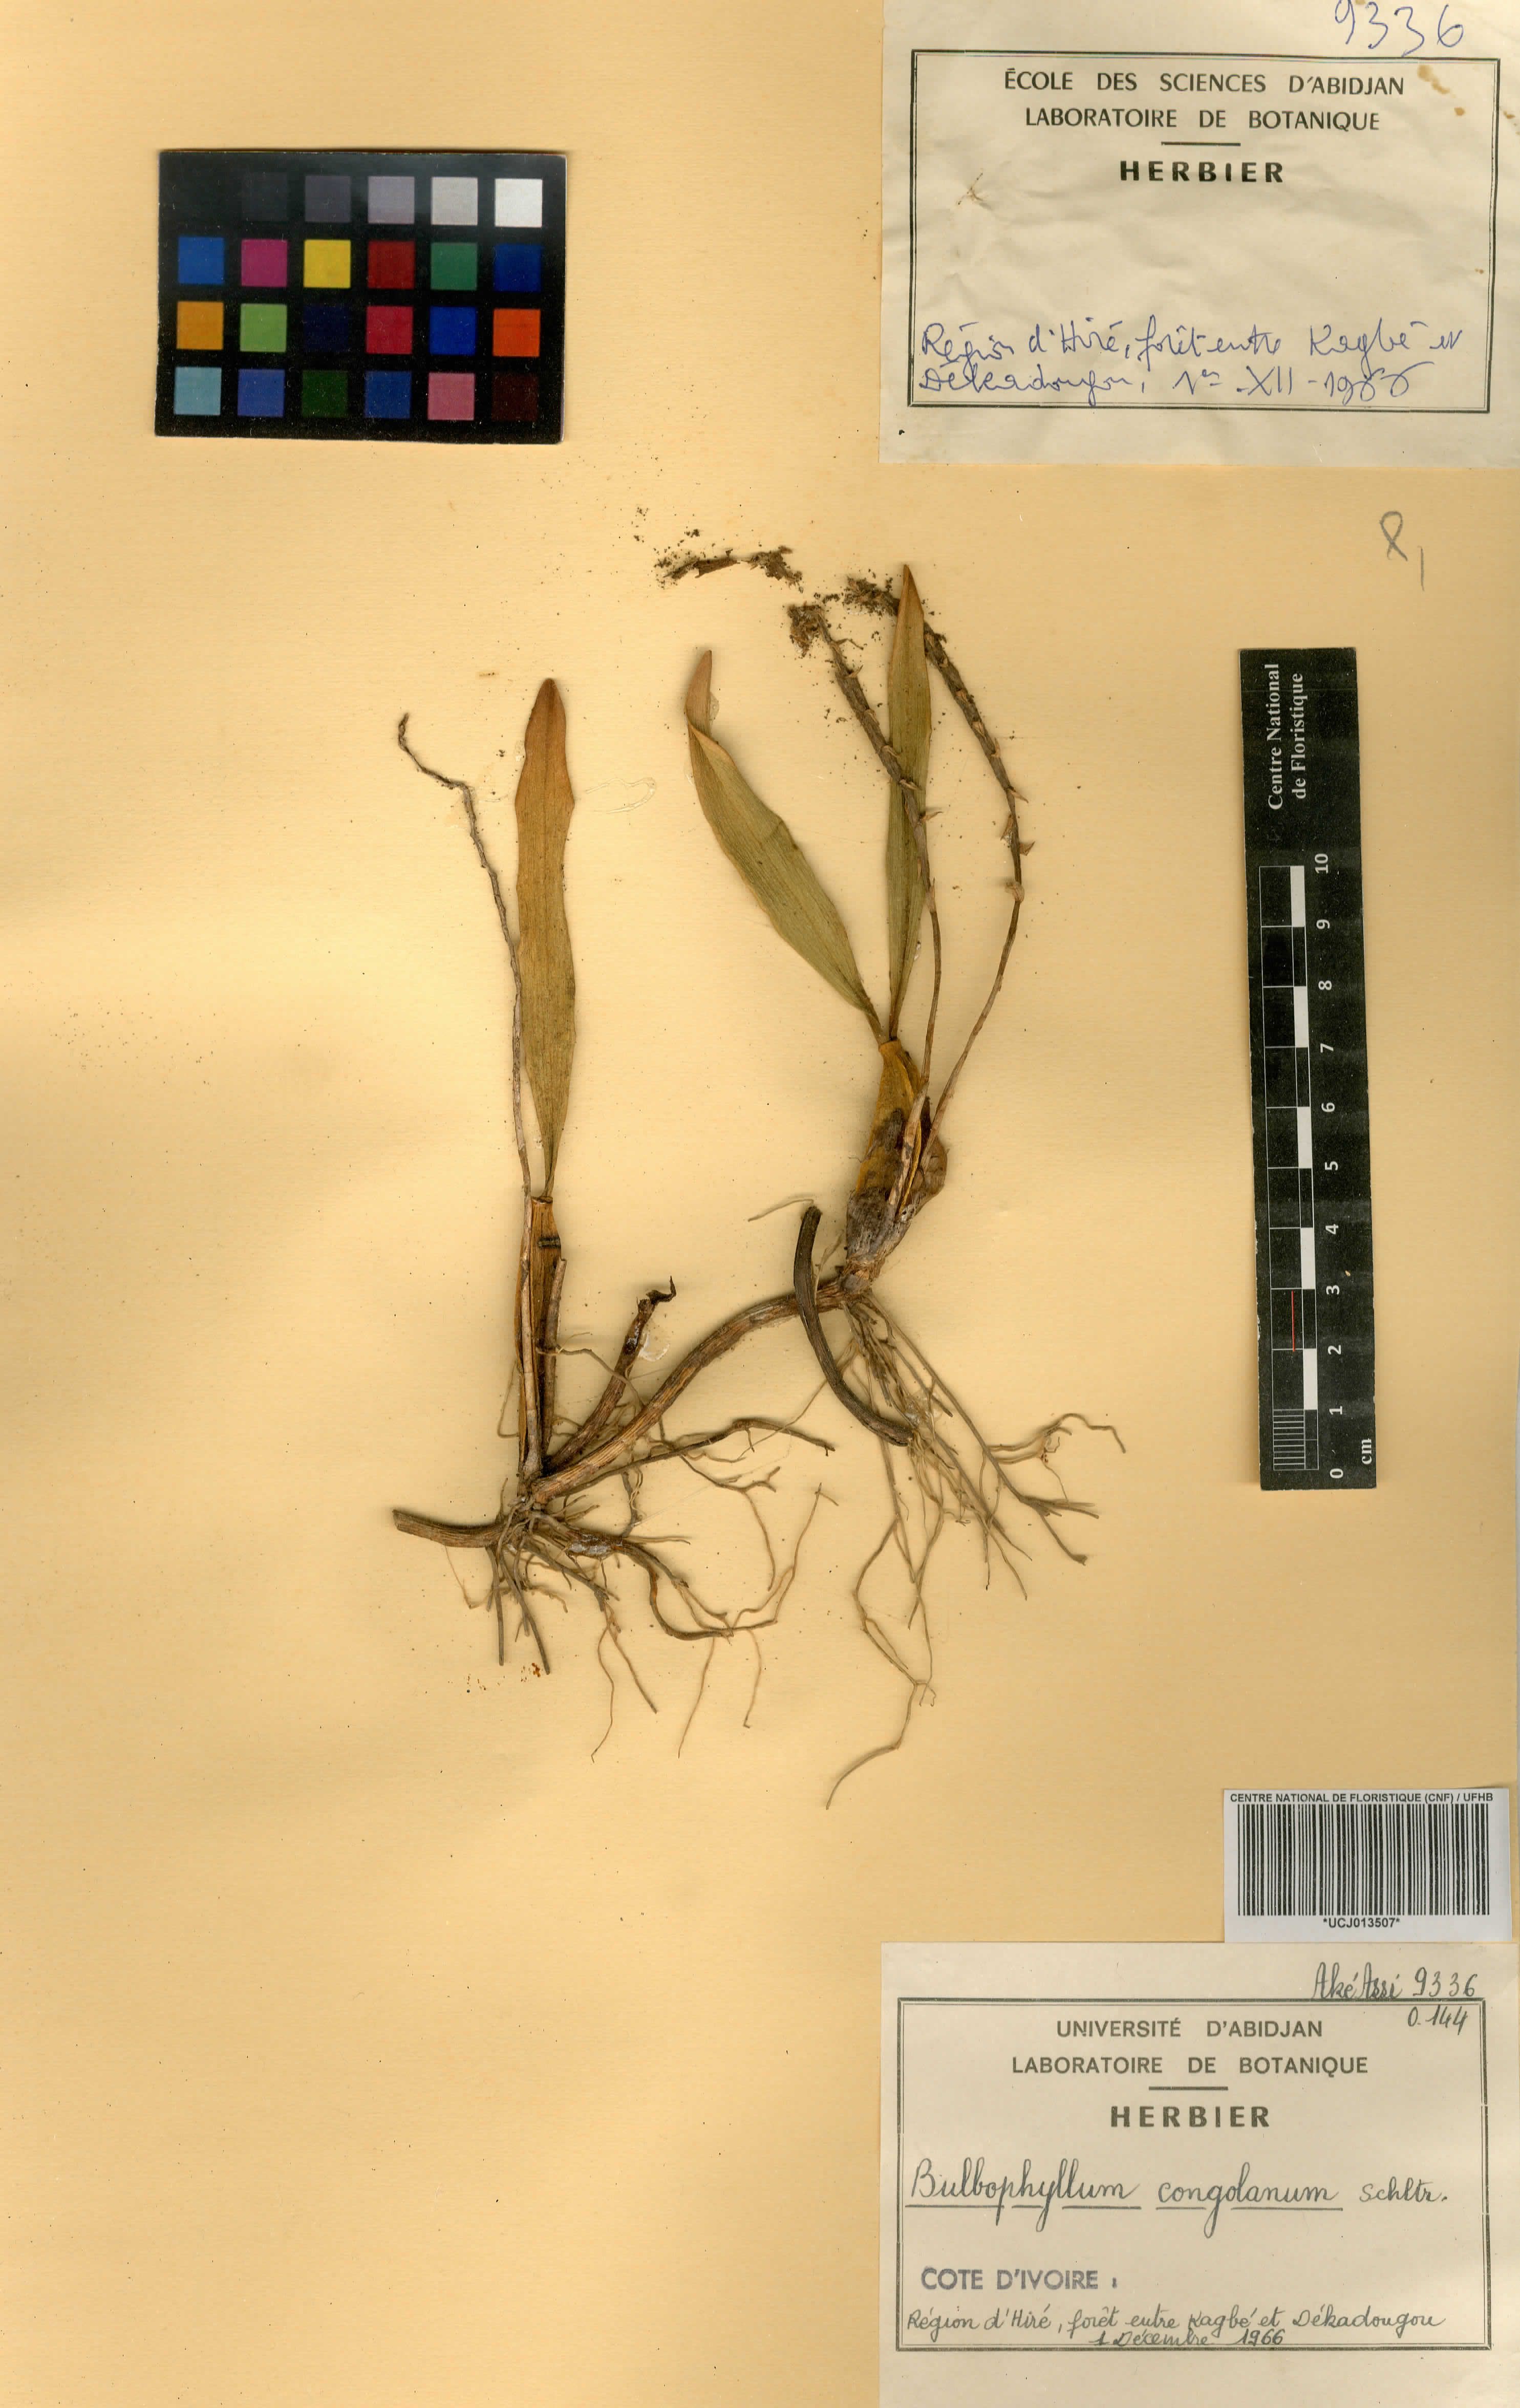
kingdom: Plantae
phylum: Tracheophyta
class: Liliopsida
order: Asparagales
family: Orchidaceae
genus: Bulbophyllum
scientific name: Bulbophyllum scaberulum
